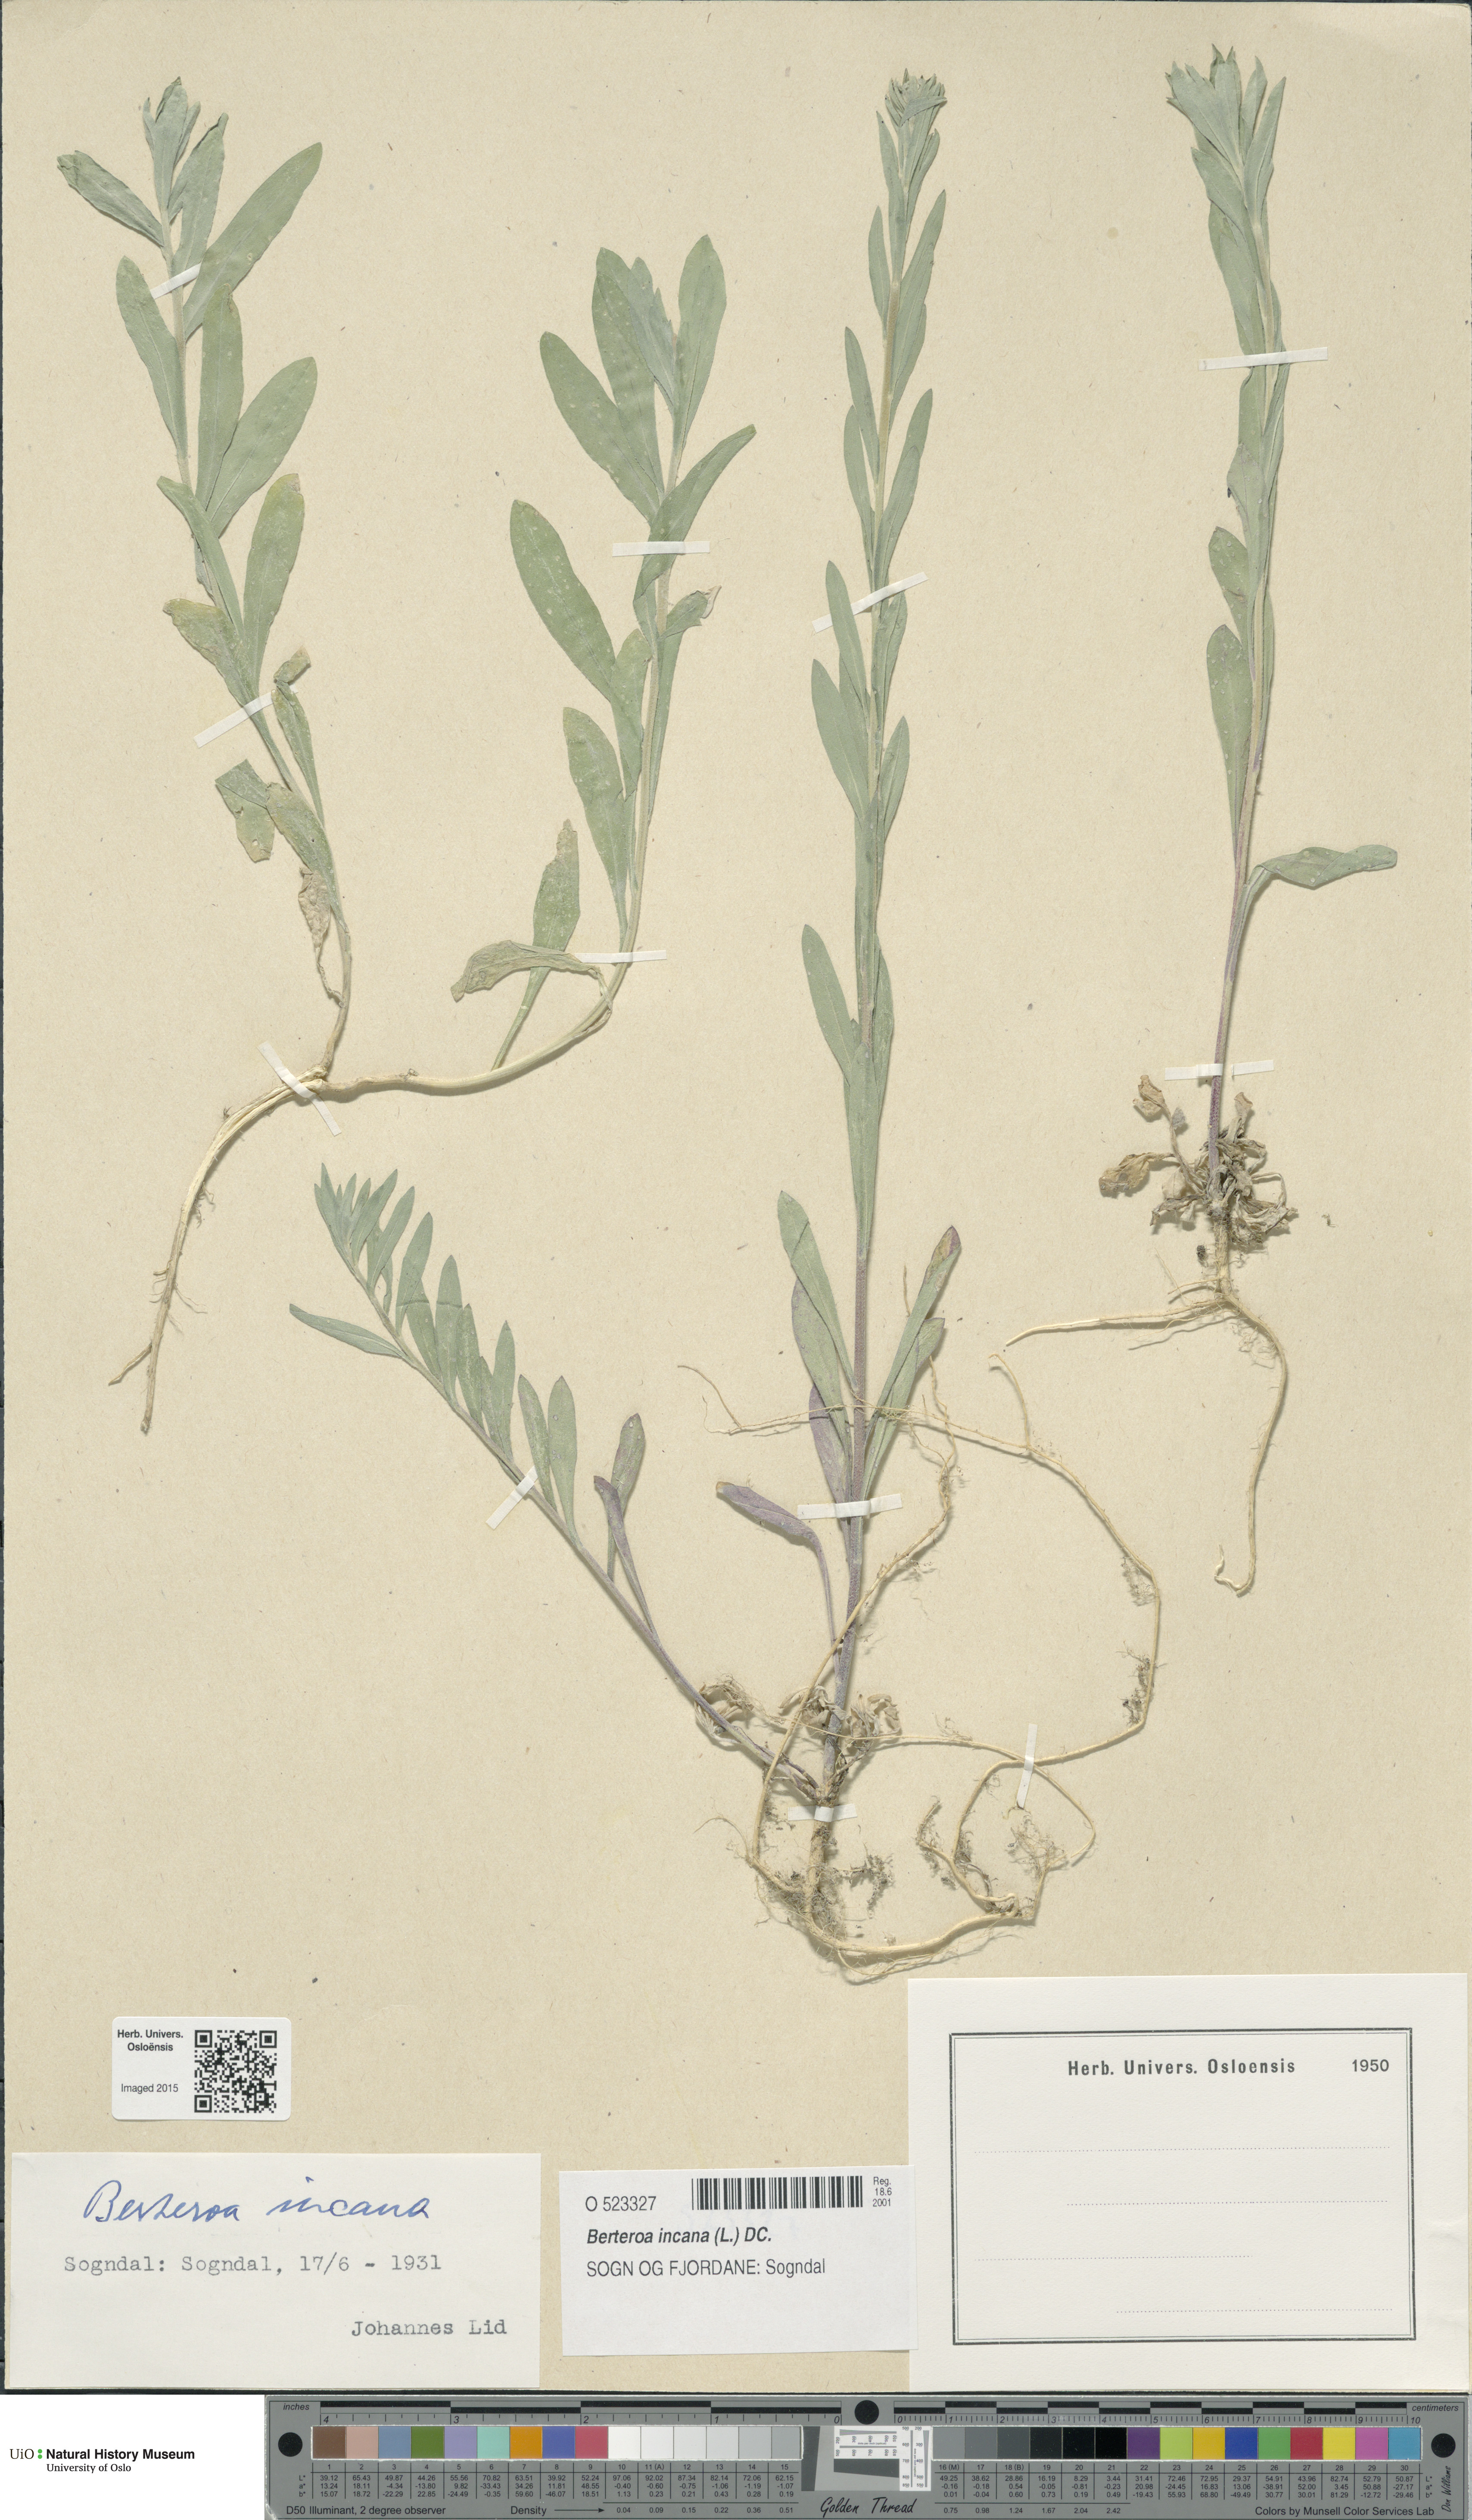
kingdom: Plantae
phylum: Tracheophyta
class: Magnoliopsida
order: Brassicales
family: Brassicaceae
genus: Berteroa
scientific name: Berteroa incana
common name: Hoary alison
